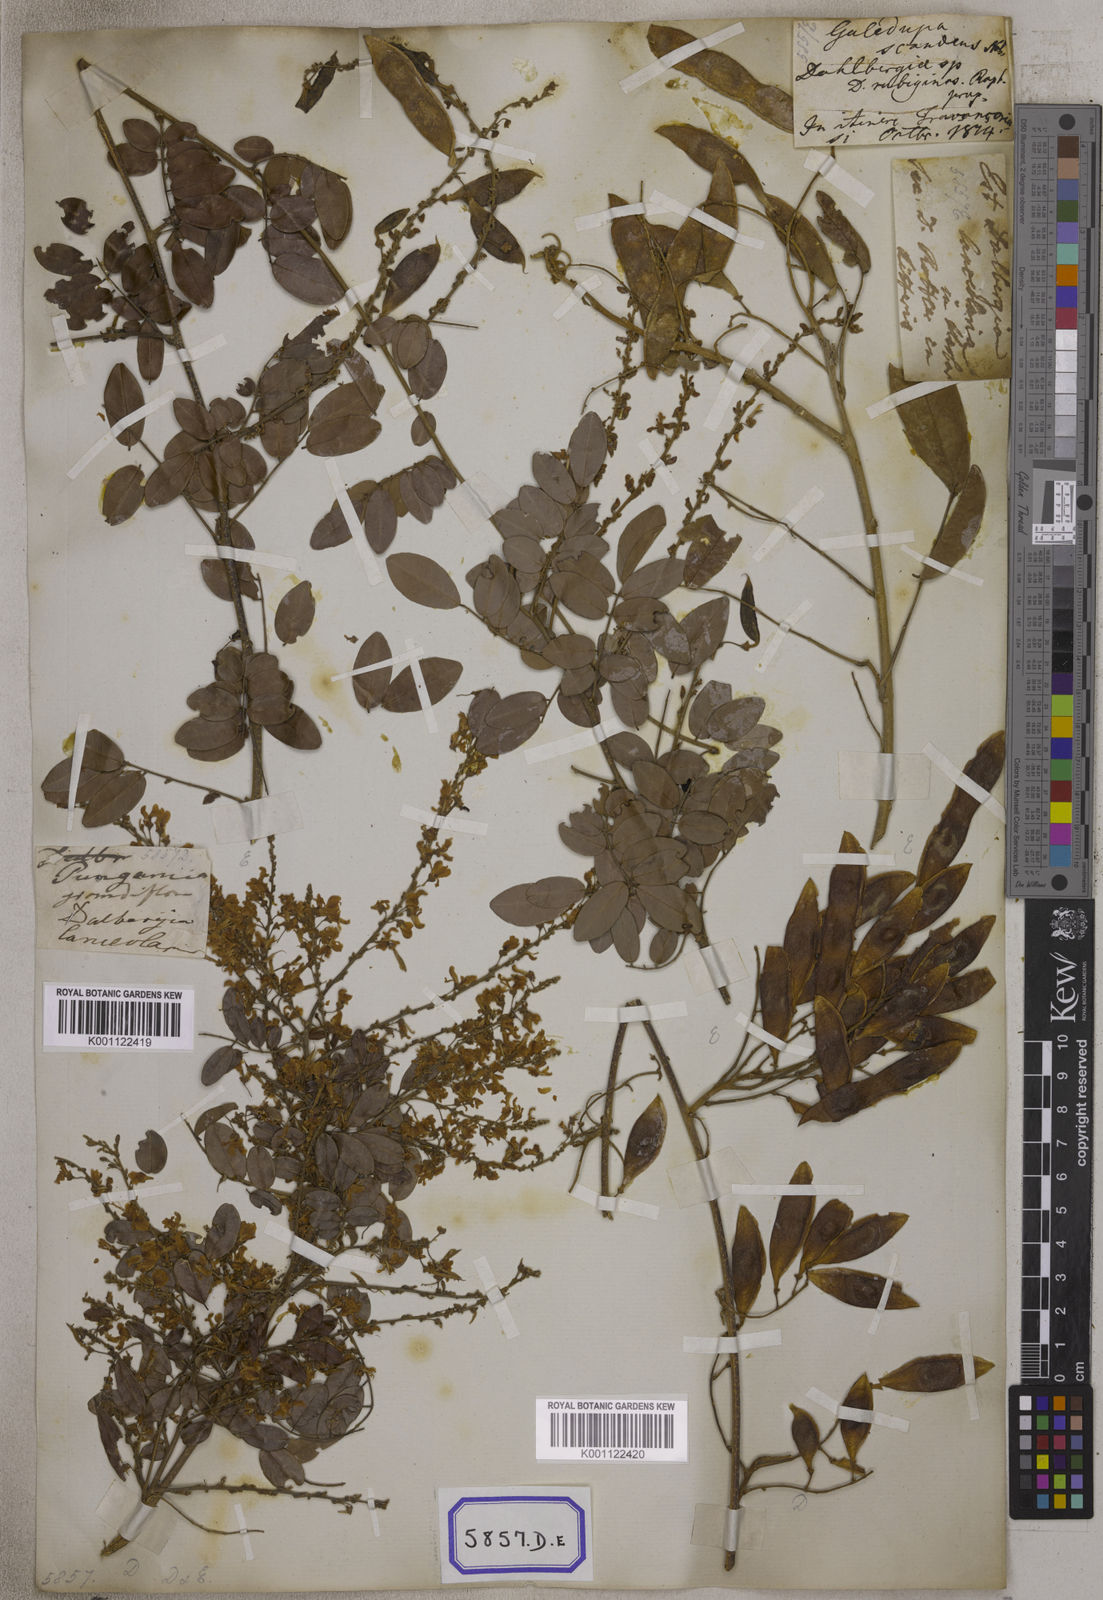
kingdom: Plantae
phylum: Tracheophyta
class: Magnoliopsida
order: Fabales
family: Fabaceae
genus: Brachypterum
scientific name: Brachypterum scandens
